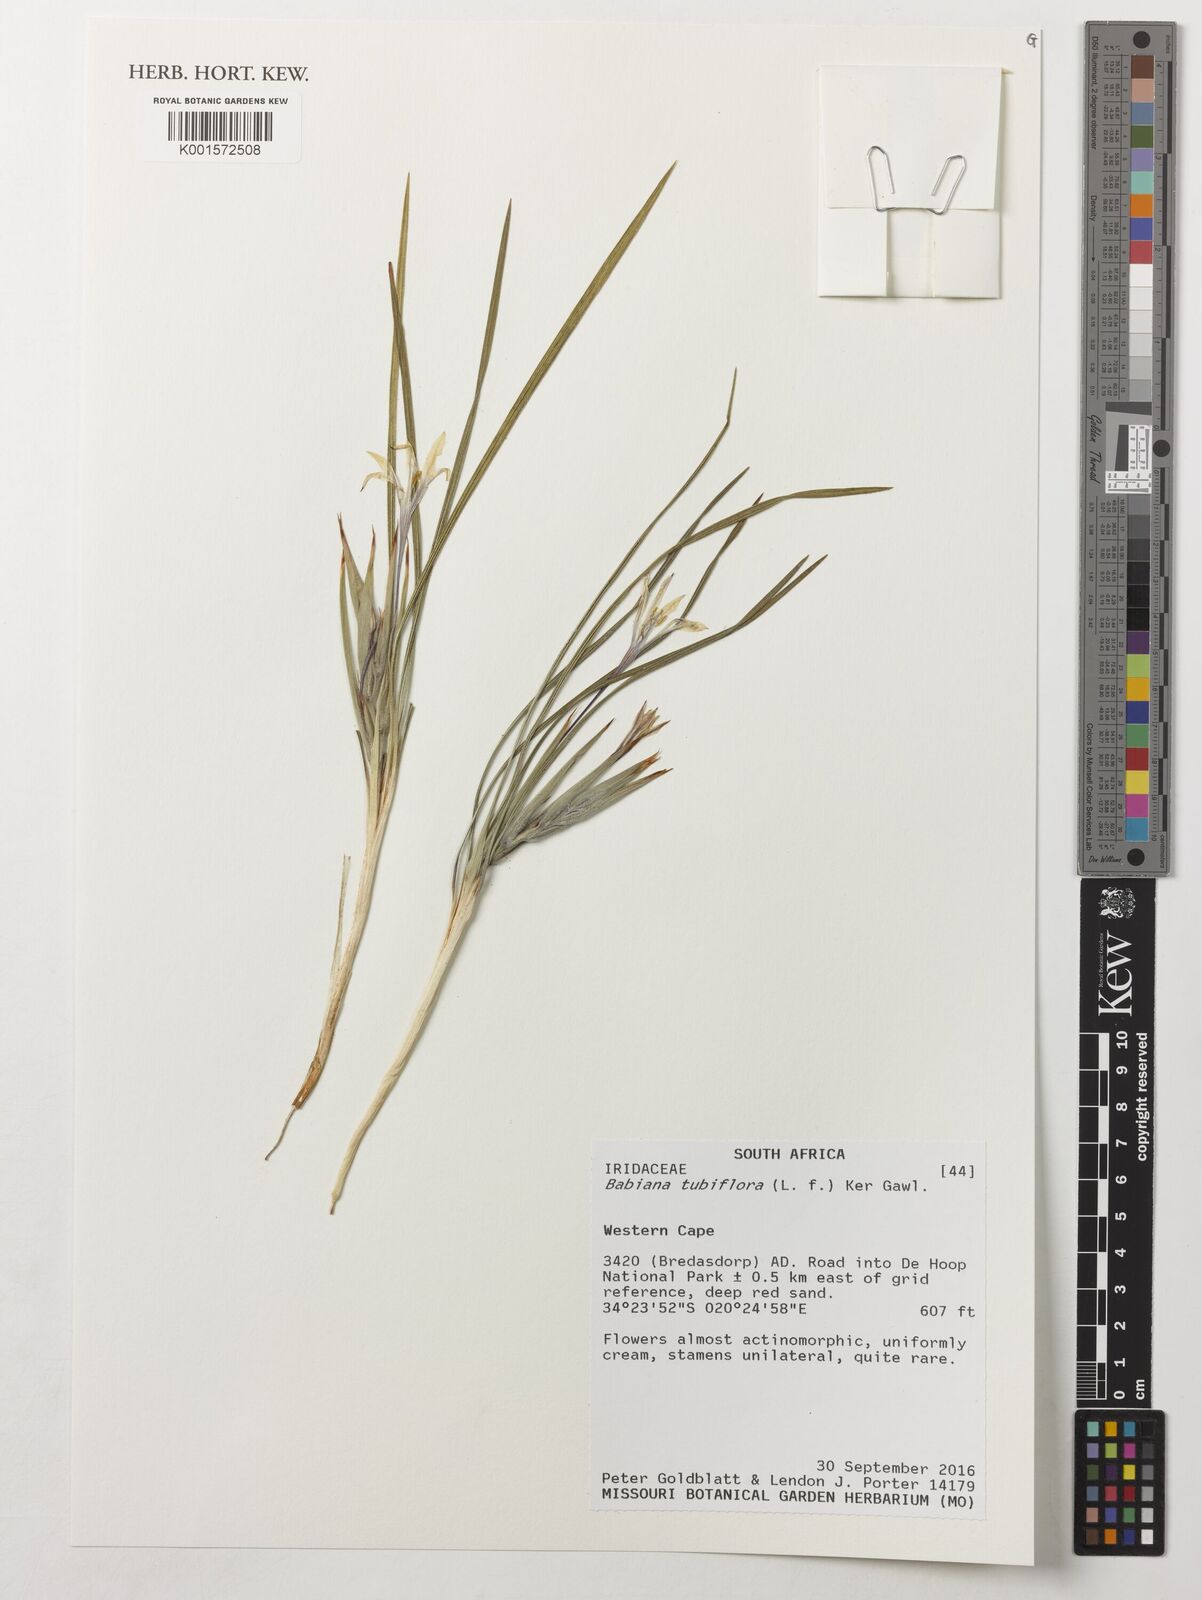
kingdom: Plantae
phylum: Tracheophyta
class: Liliopsida
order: Asparagales
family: Iridaceae
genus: Babiana
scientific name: Babiana tubiflora
